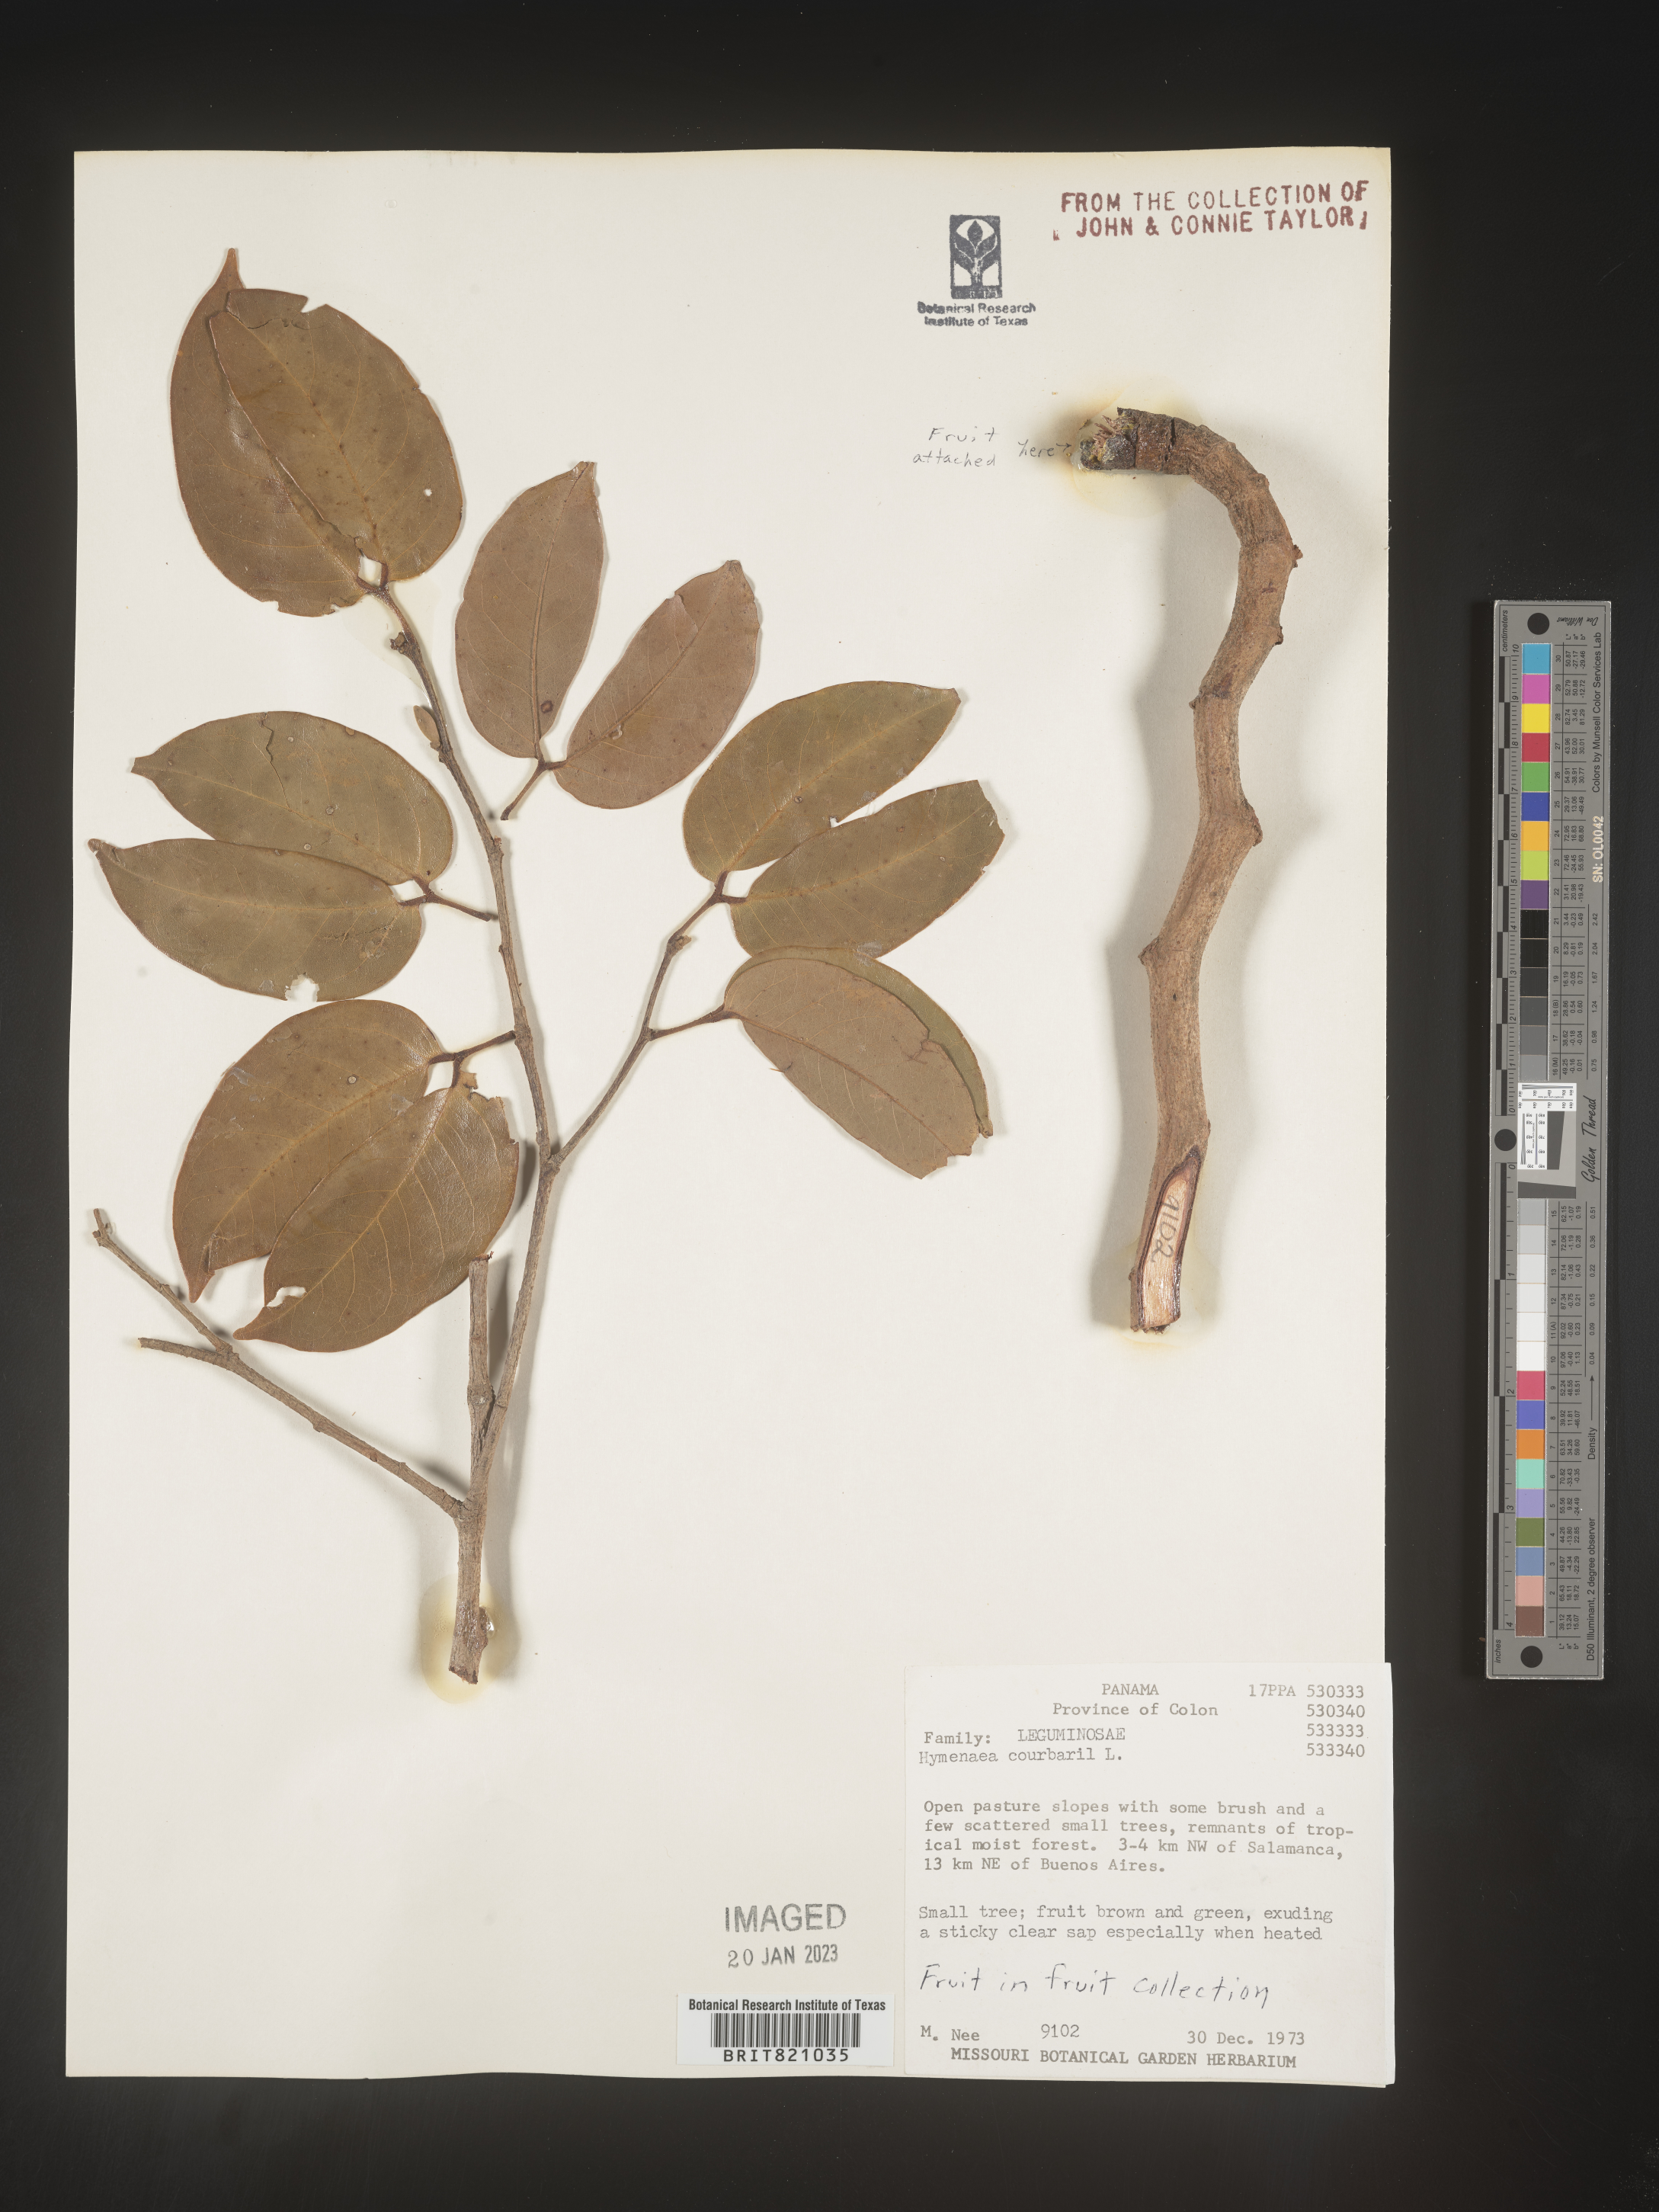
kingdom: Plantae
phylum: Tracheophyta
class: Magnoliopsida
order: Fabales
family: Fabaceae
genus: Hymenaea
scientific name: Hymenaea
